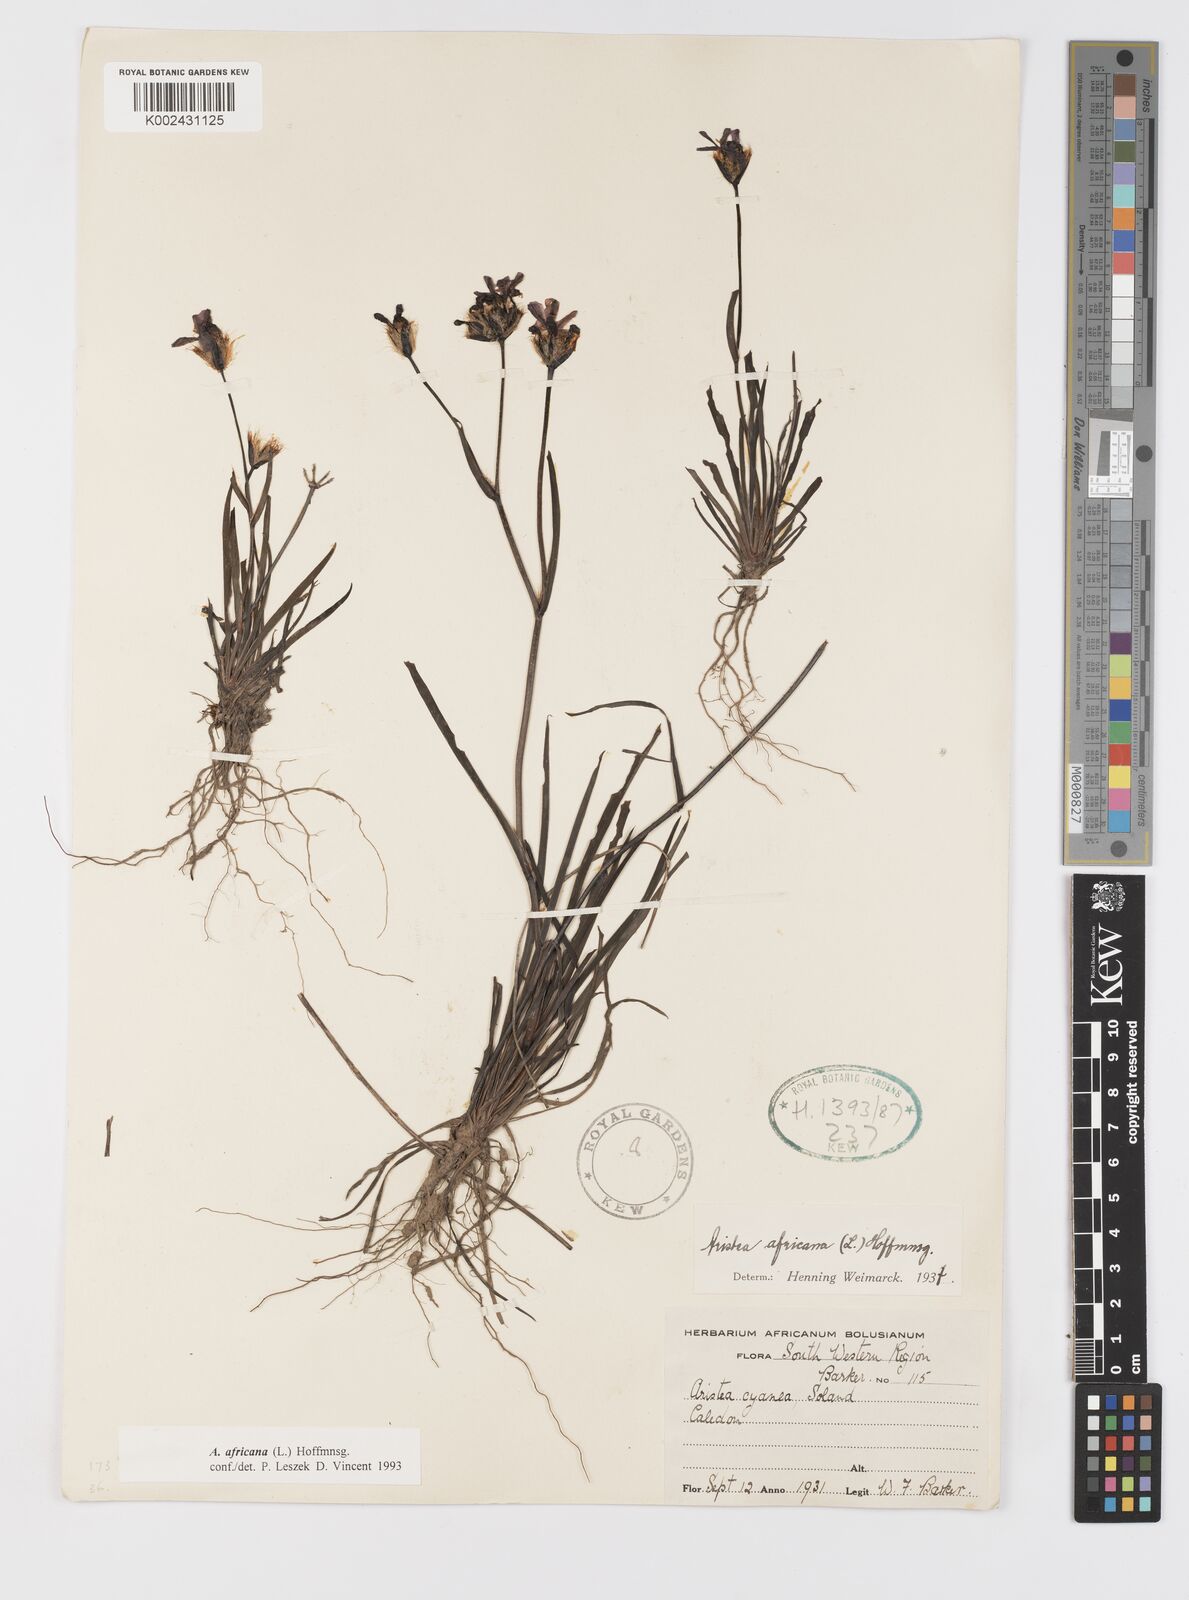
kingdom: Plantae
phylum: Tracheophyta
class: Liliopsida
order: Asparagales
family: Iridaceae
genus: Aristea
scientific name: Aristea africana
